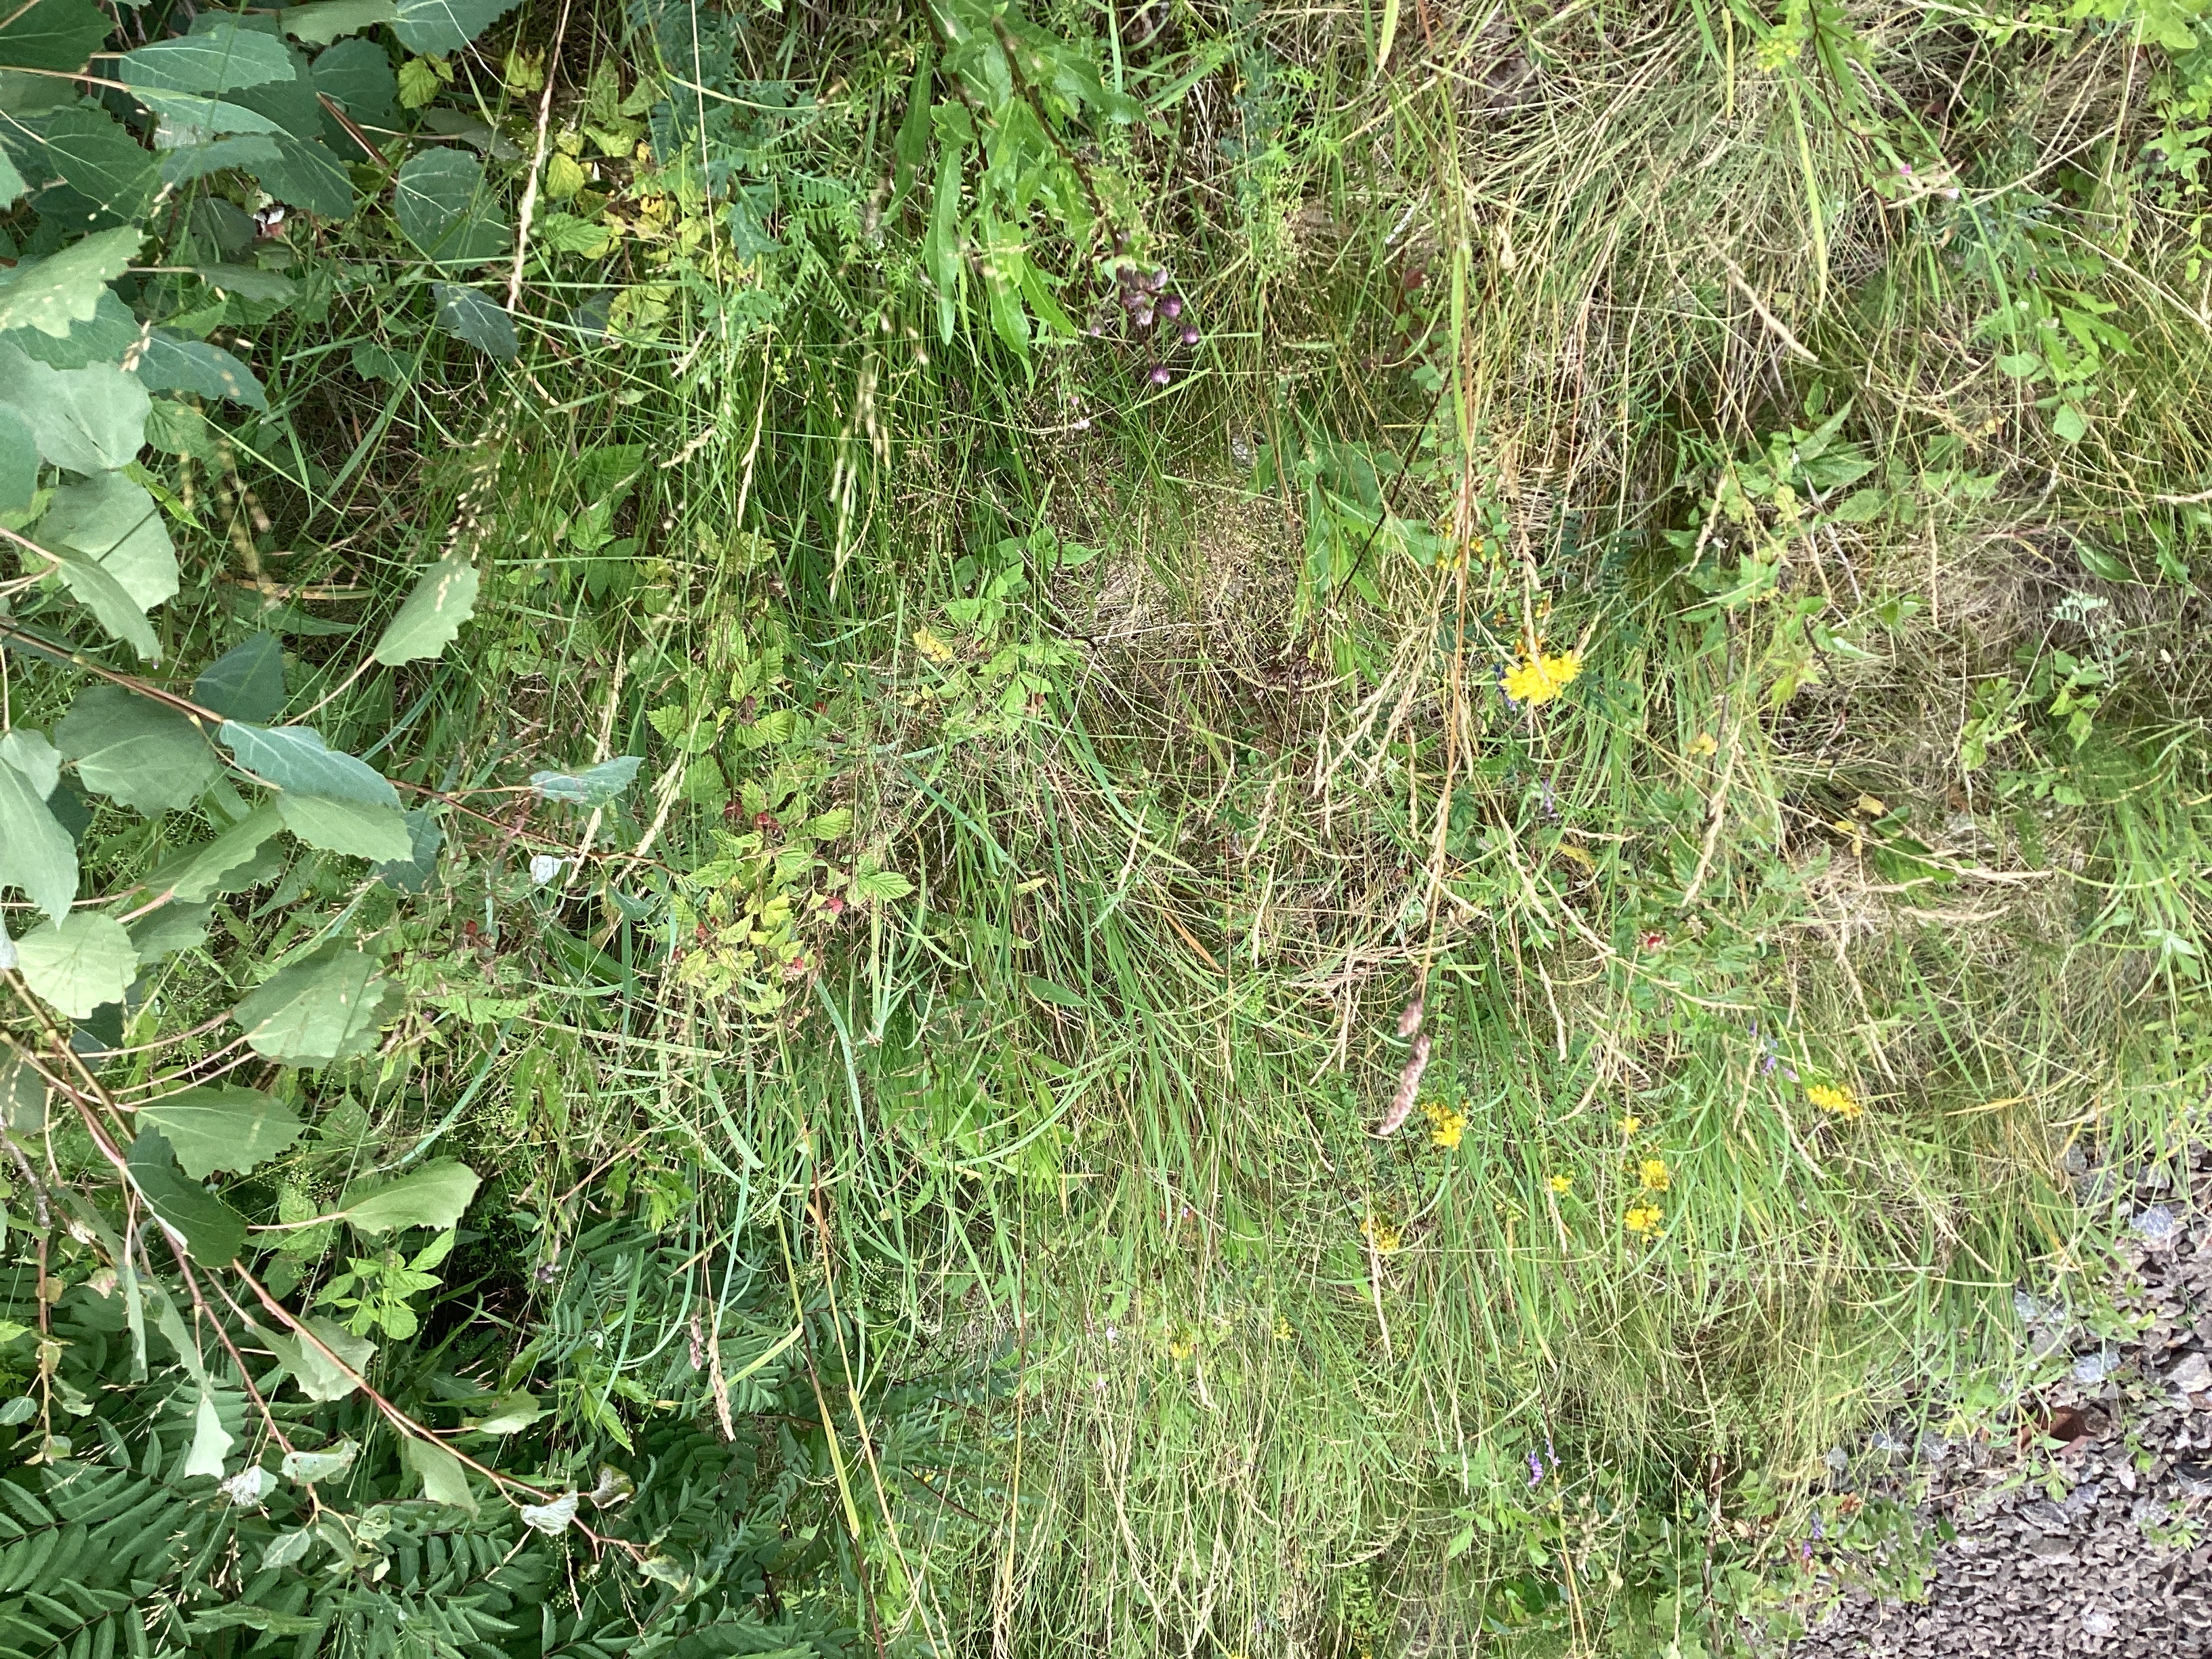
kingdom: Plantae
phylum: Tracheophyta
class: Magnoliopsida
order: Sapindales
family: Sapindaceae
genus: Acer
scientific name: Acer pseudoplatanus
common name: platanlønn
